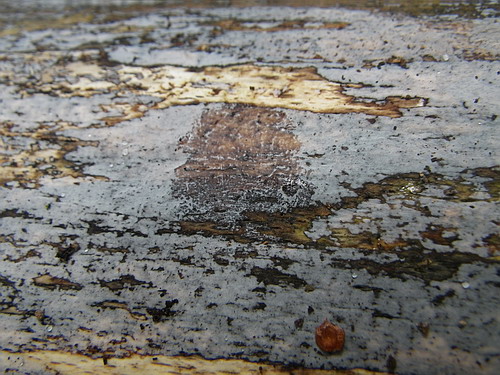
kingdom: Fungi
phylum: Basidiomycota
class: Tremellomycetes
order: Tremellales
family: Exidiaceae
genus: Exidiopsis
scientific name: Exidiopsis effusa
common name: smuk bævrehinde
